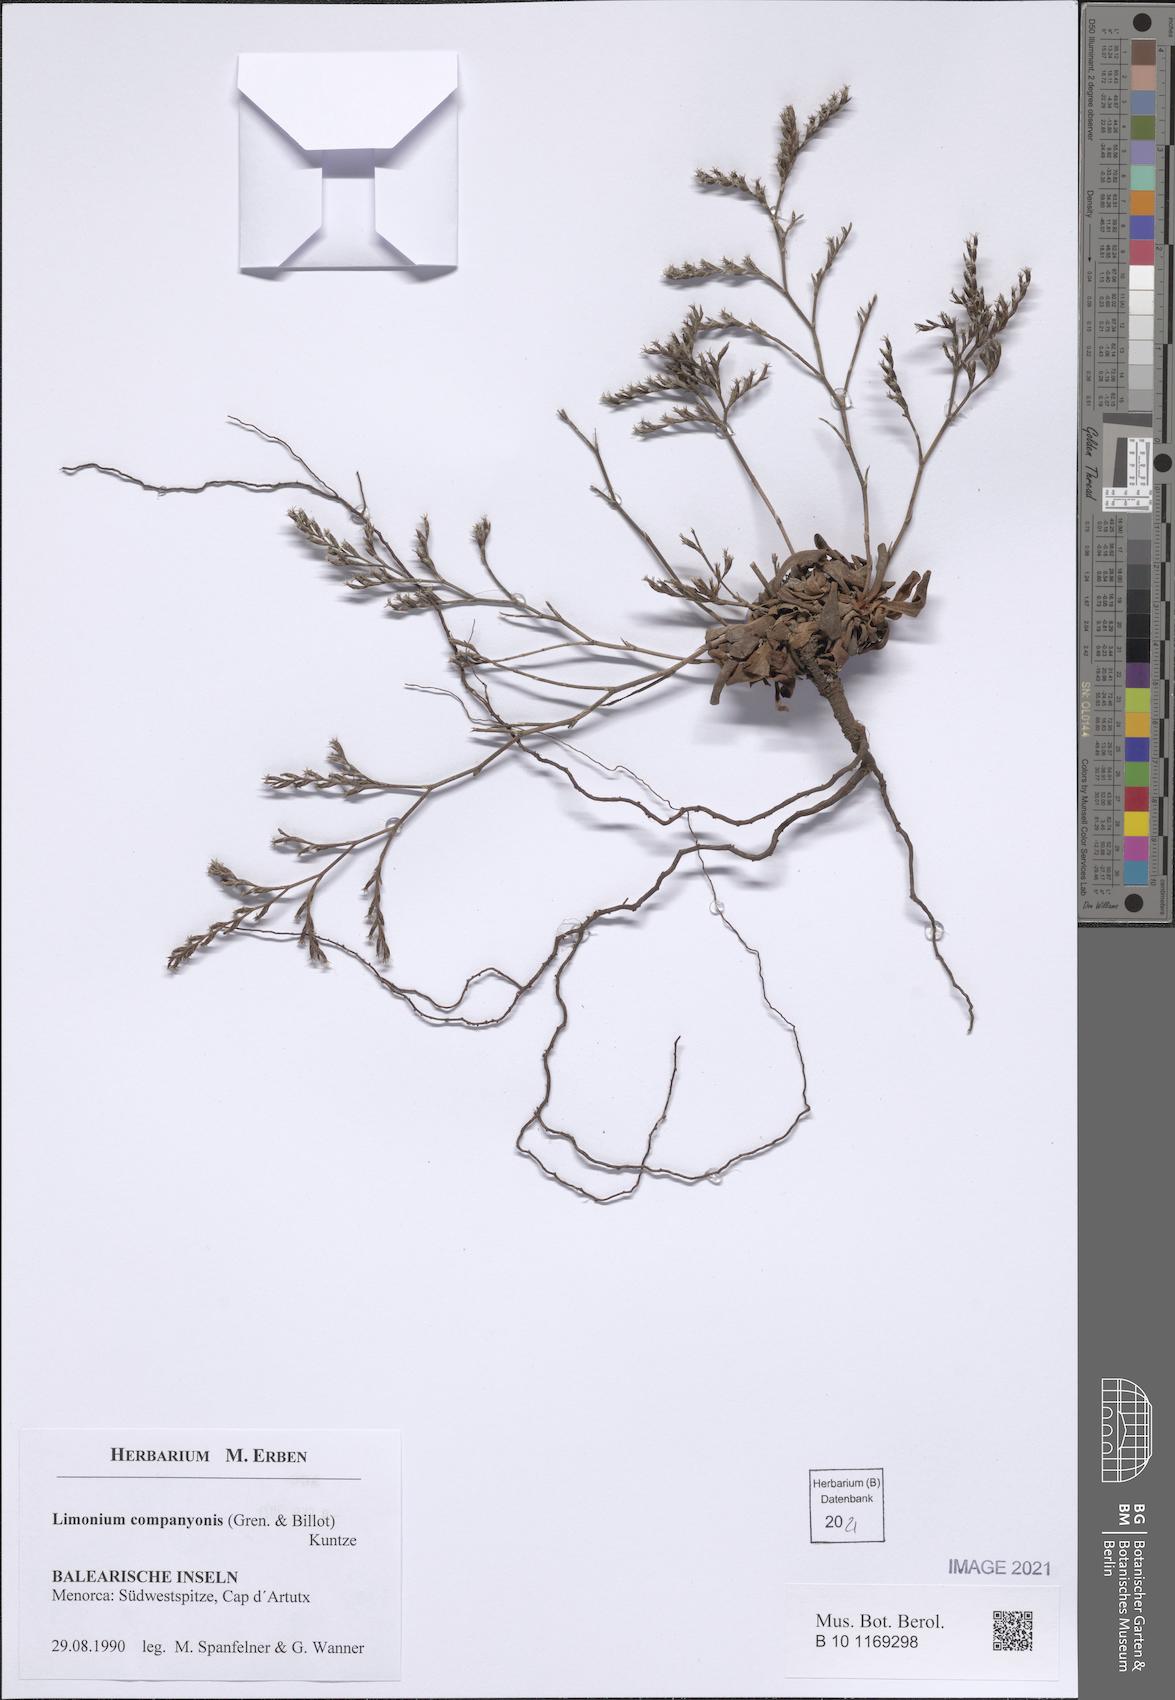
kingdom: Plantae
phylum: Tracheophyta
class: Magnoliopsida
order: Caryophyllales
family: Plumbaginaceae
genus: Limonium
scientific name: Limonium companyonis
